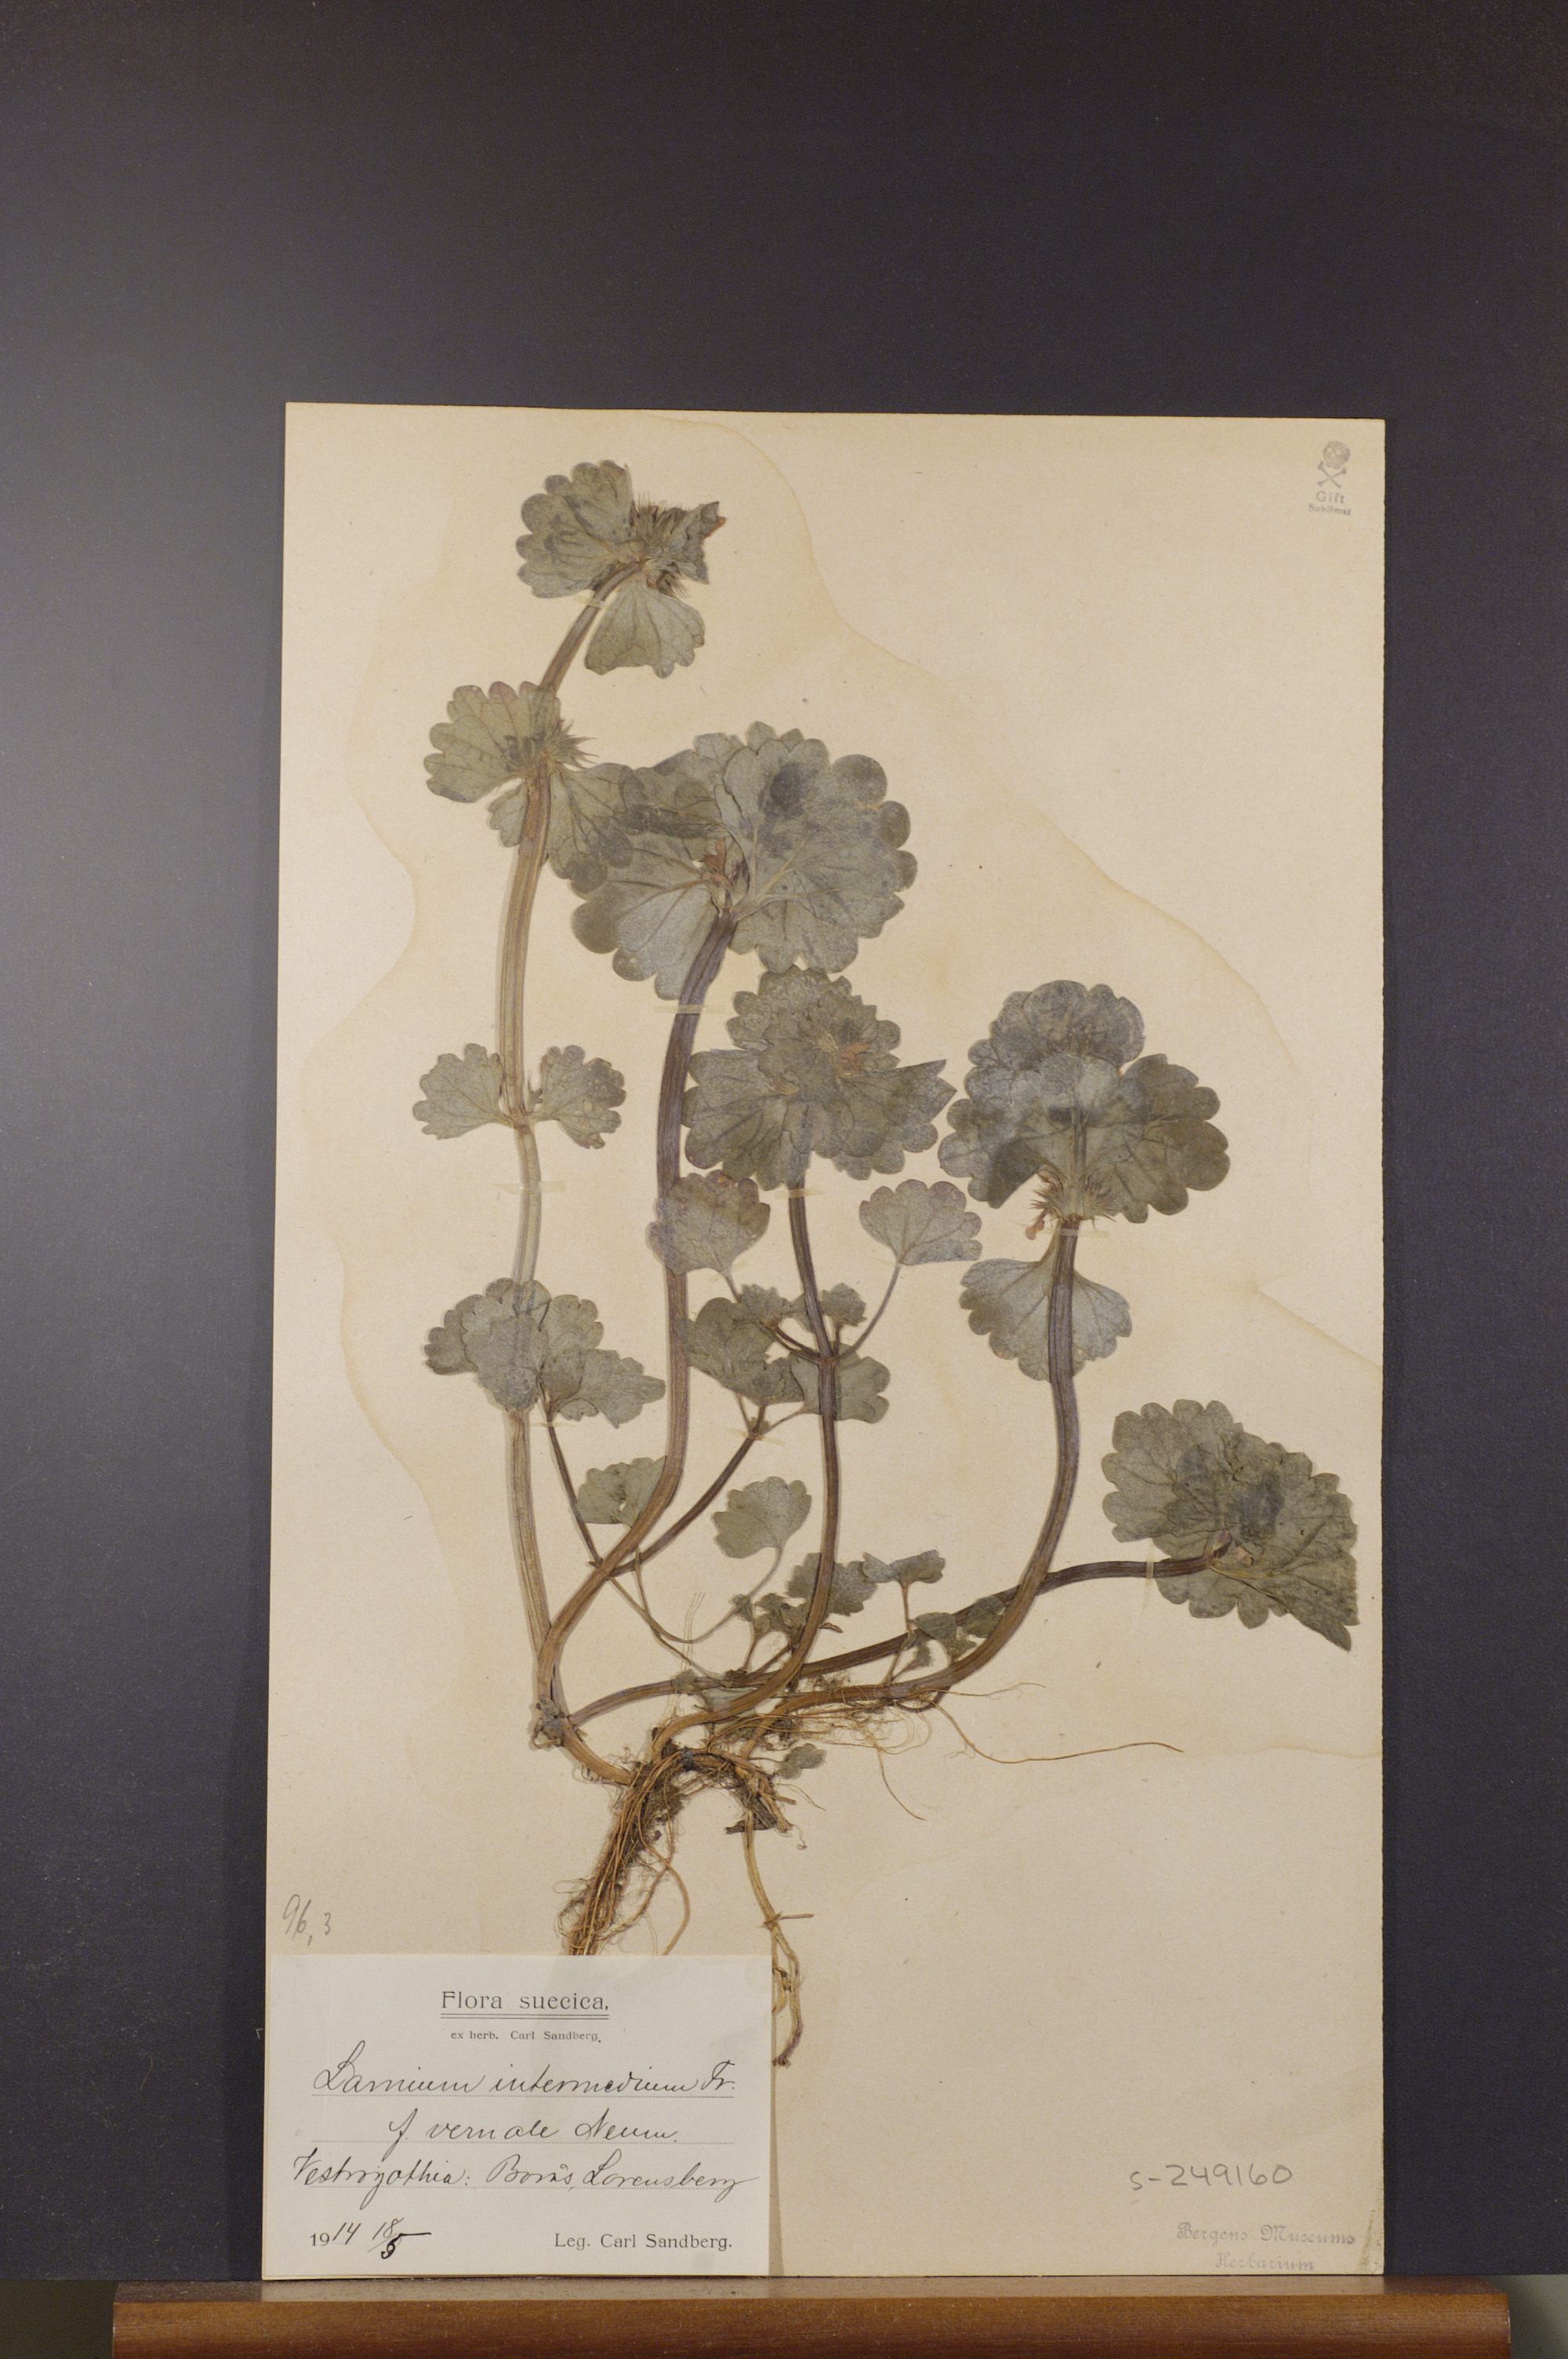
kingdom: Plantae
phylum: Tracheophyta
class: Magnoliopsida
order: Lamiales
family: Lamiaceae
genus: Lamium
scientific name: Lamium confertum
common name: Northern dead-nettle
